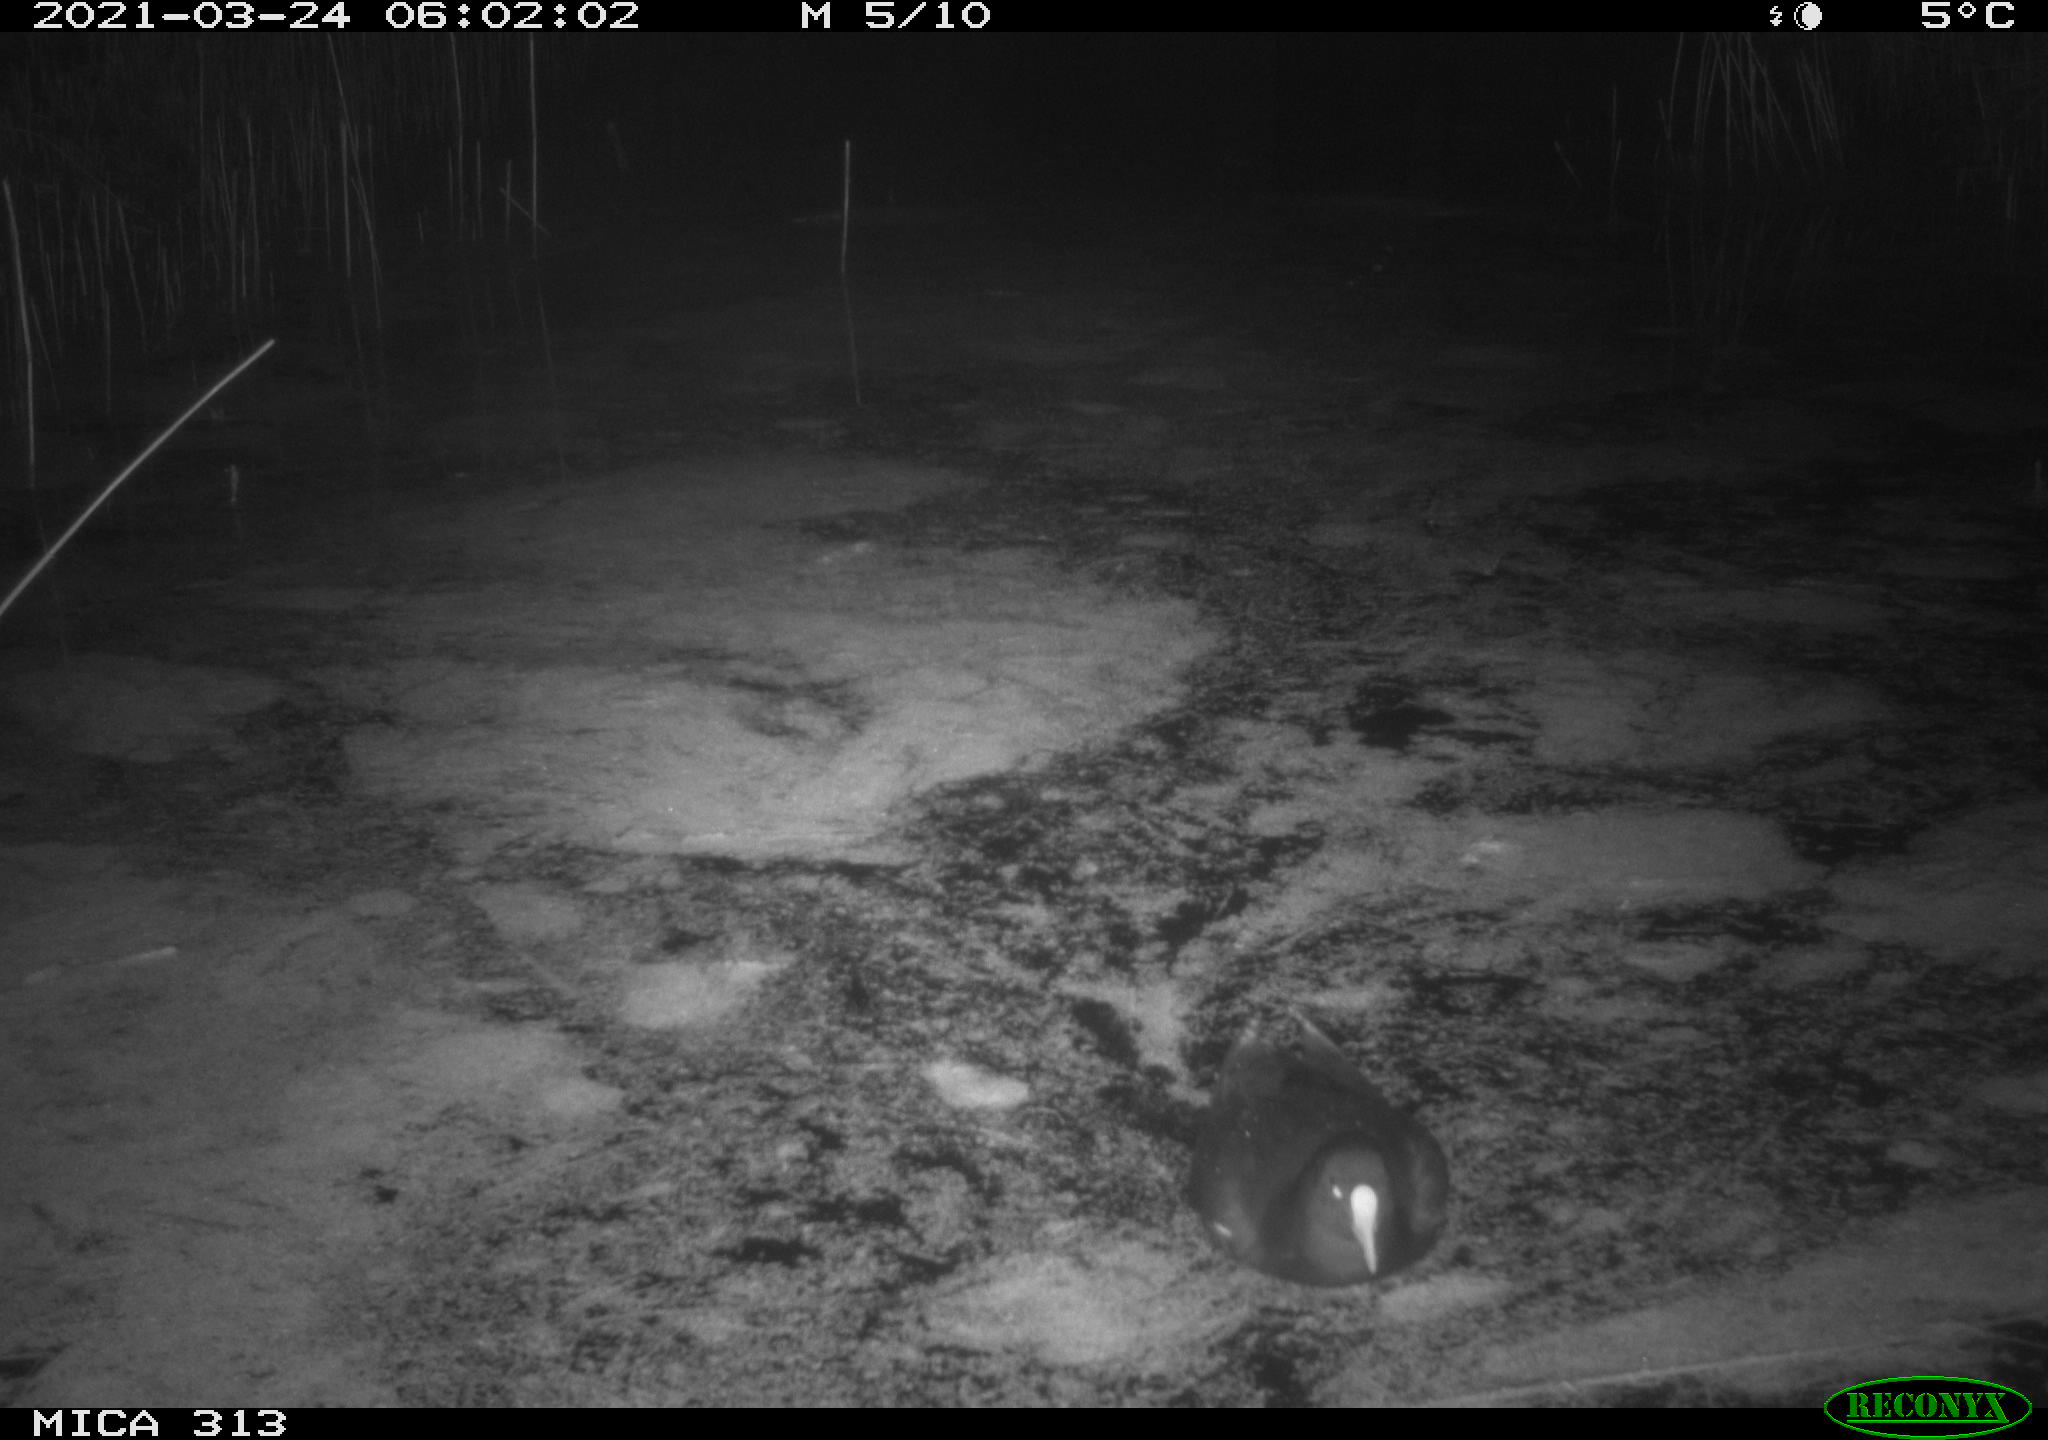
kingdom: Animalia
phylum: Chordata
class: Aves
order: Anseriformes
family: Anatidae
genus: Anas
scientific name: Anas platyrhynchos
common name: Mallard
